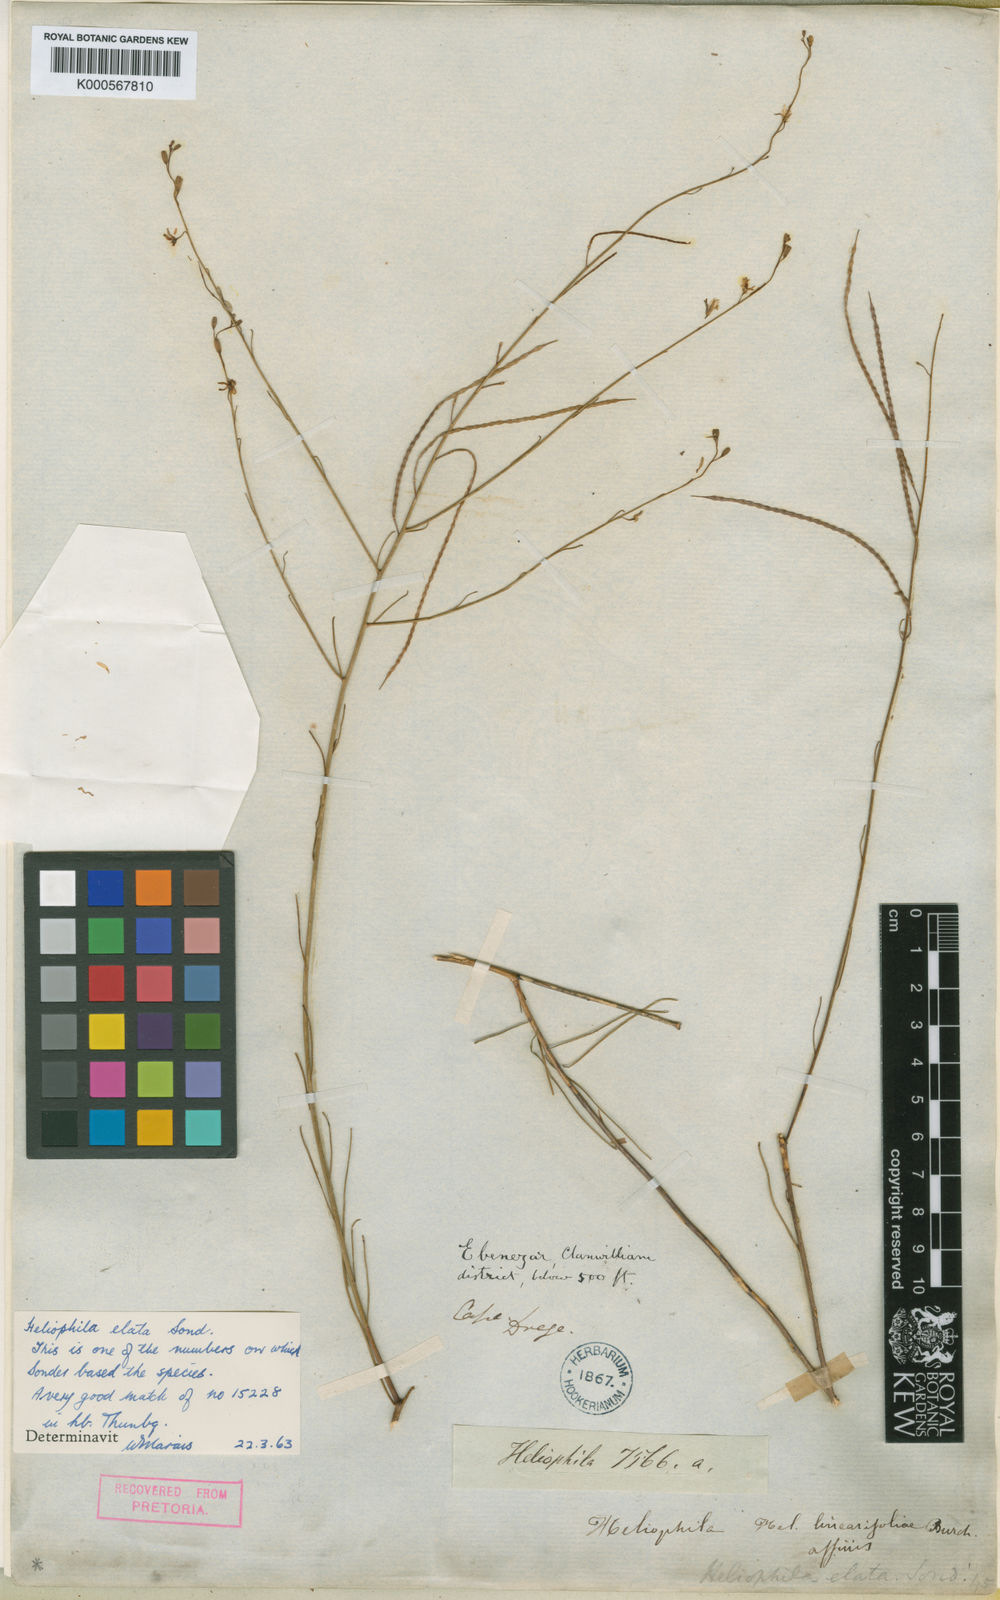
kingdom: Plantae
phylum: Tracheophyta
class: Magnoliopsida
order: Brassicales
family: Brassicaceae
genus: Heliophila
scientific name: Heliophila elata
